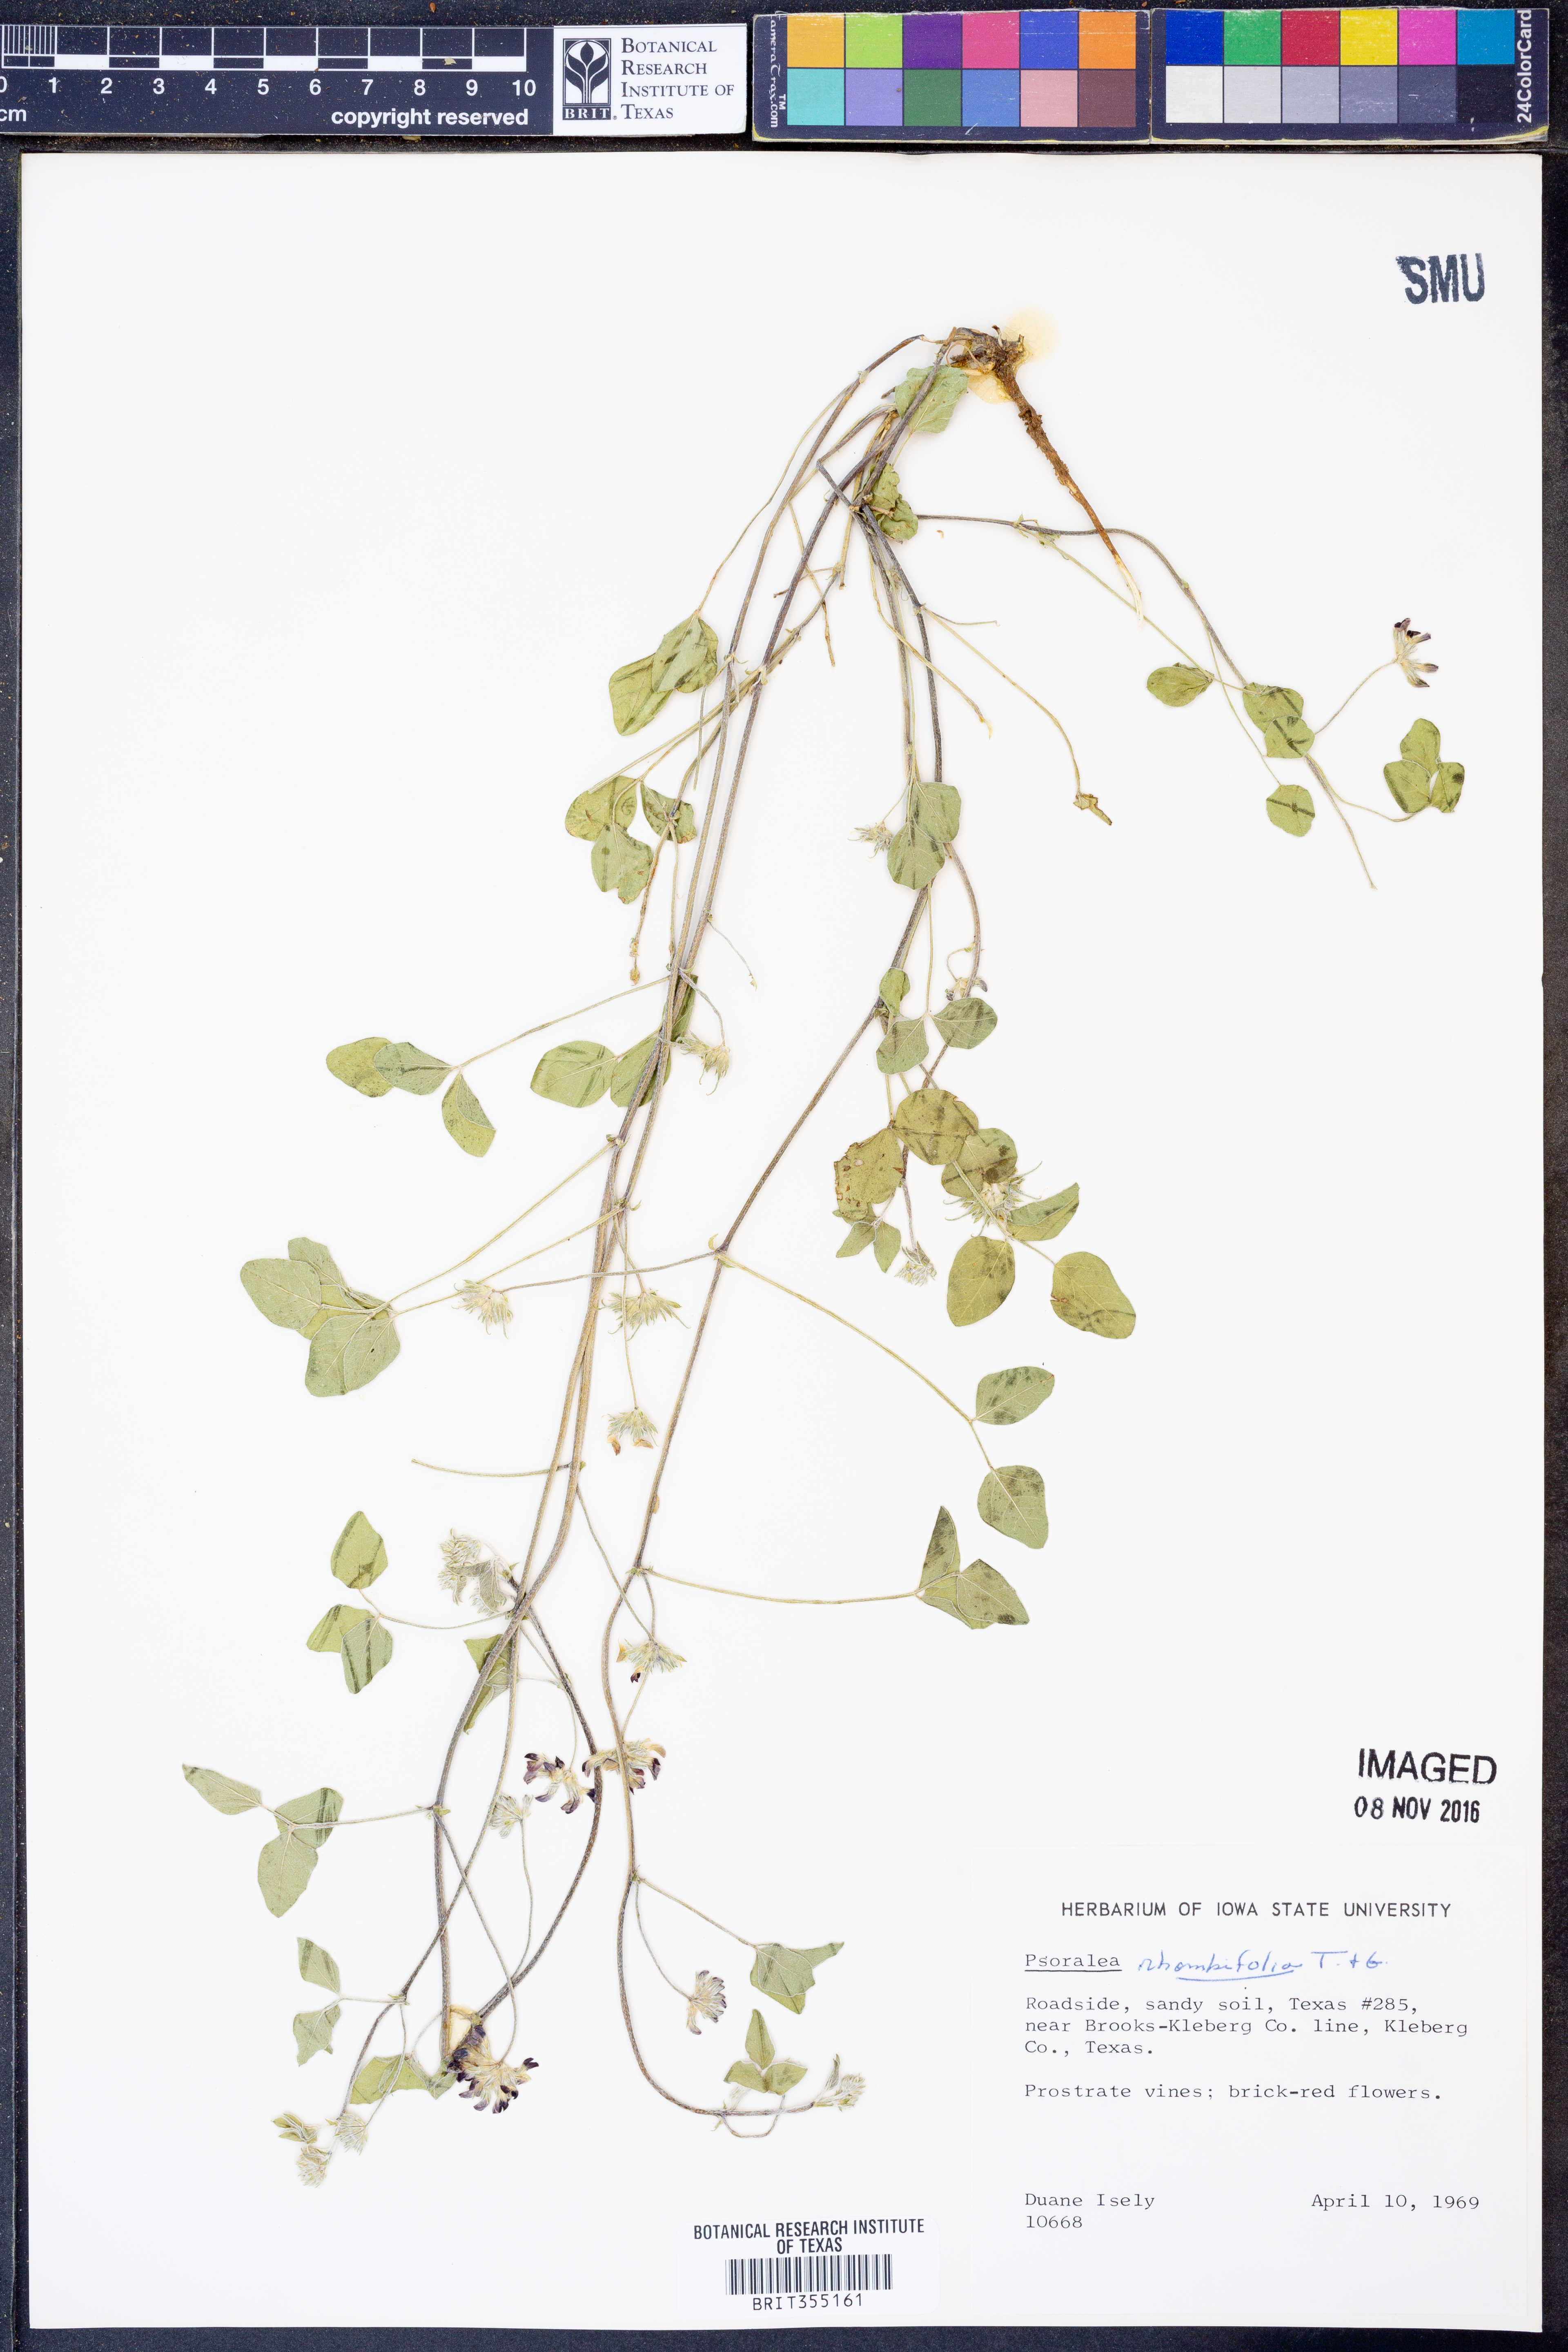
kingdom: Plantae
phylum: Tracheophyta
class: Magnoliopsida
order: Fabales
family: Fabaceae
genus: Pediomelum
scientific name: Pediomelum rhombifolium
